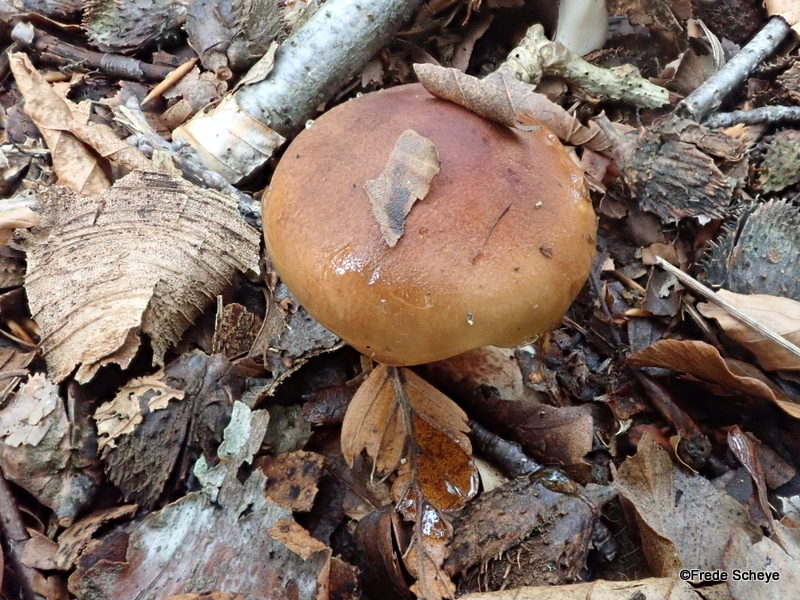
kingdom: Fungi
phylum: Basidiomycota
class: Agaricomycetes
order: Agaricales
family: Tricholomataceae
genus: Tricholoma
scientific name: Tricholoma ustale
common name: sveden ridderhat
